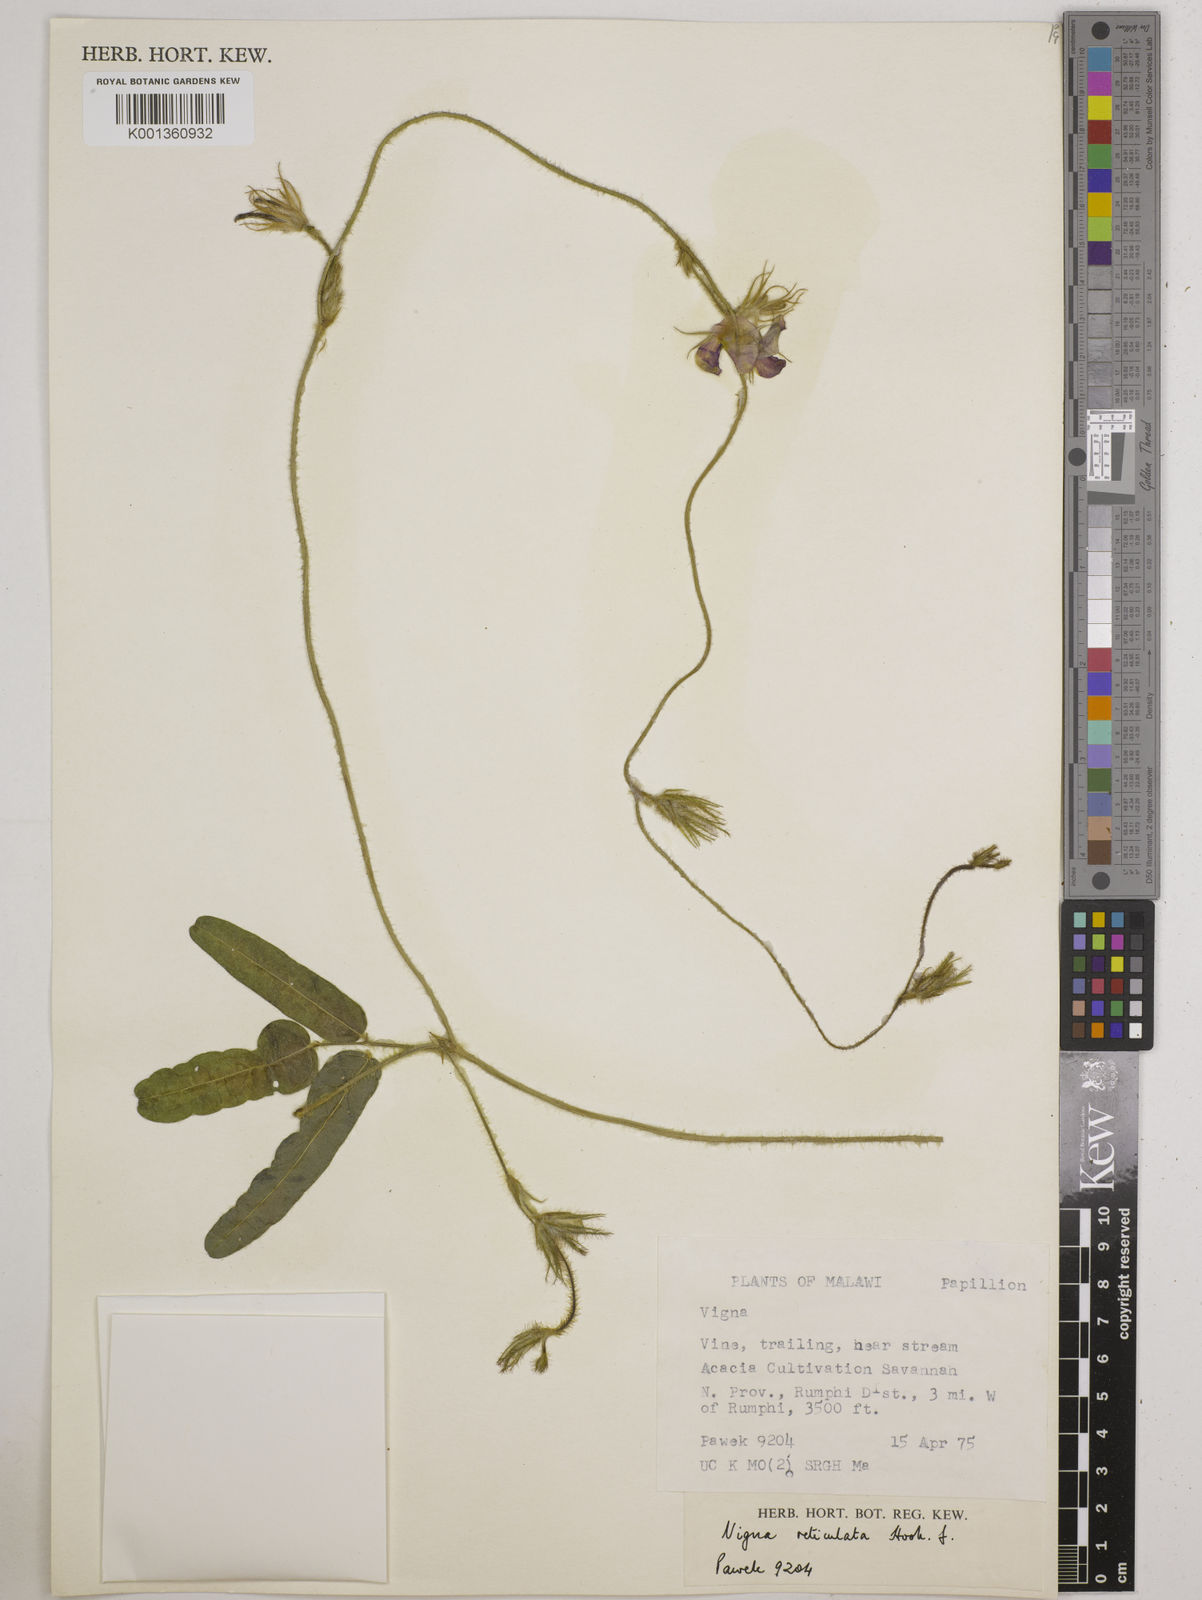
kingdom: Plantae
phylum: Tracheophyta
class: Magnoliopsida
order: Fabales
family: Fabaceae
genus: Vigna
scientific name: Vigna reticulata
